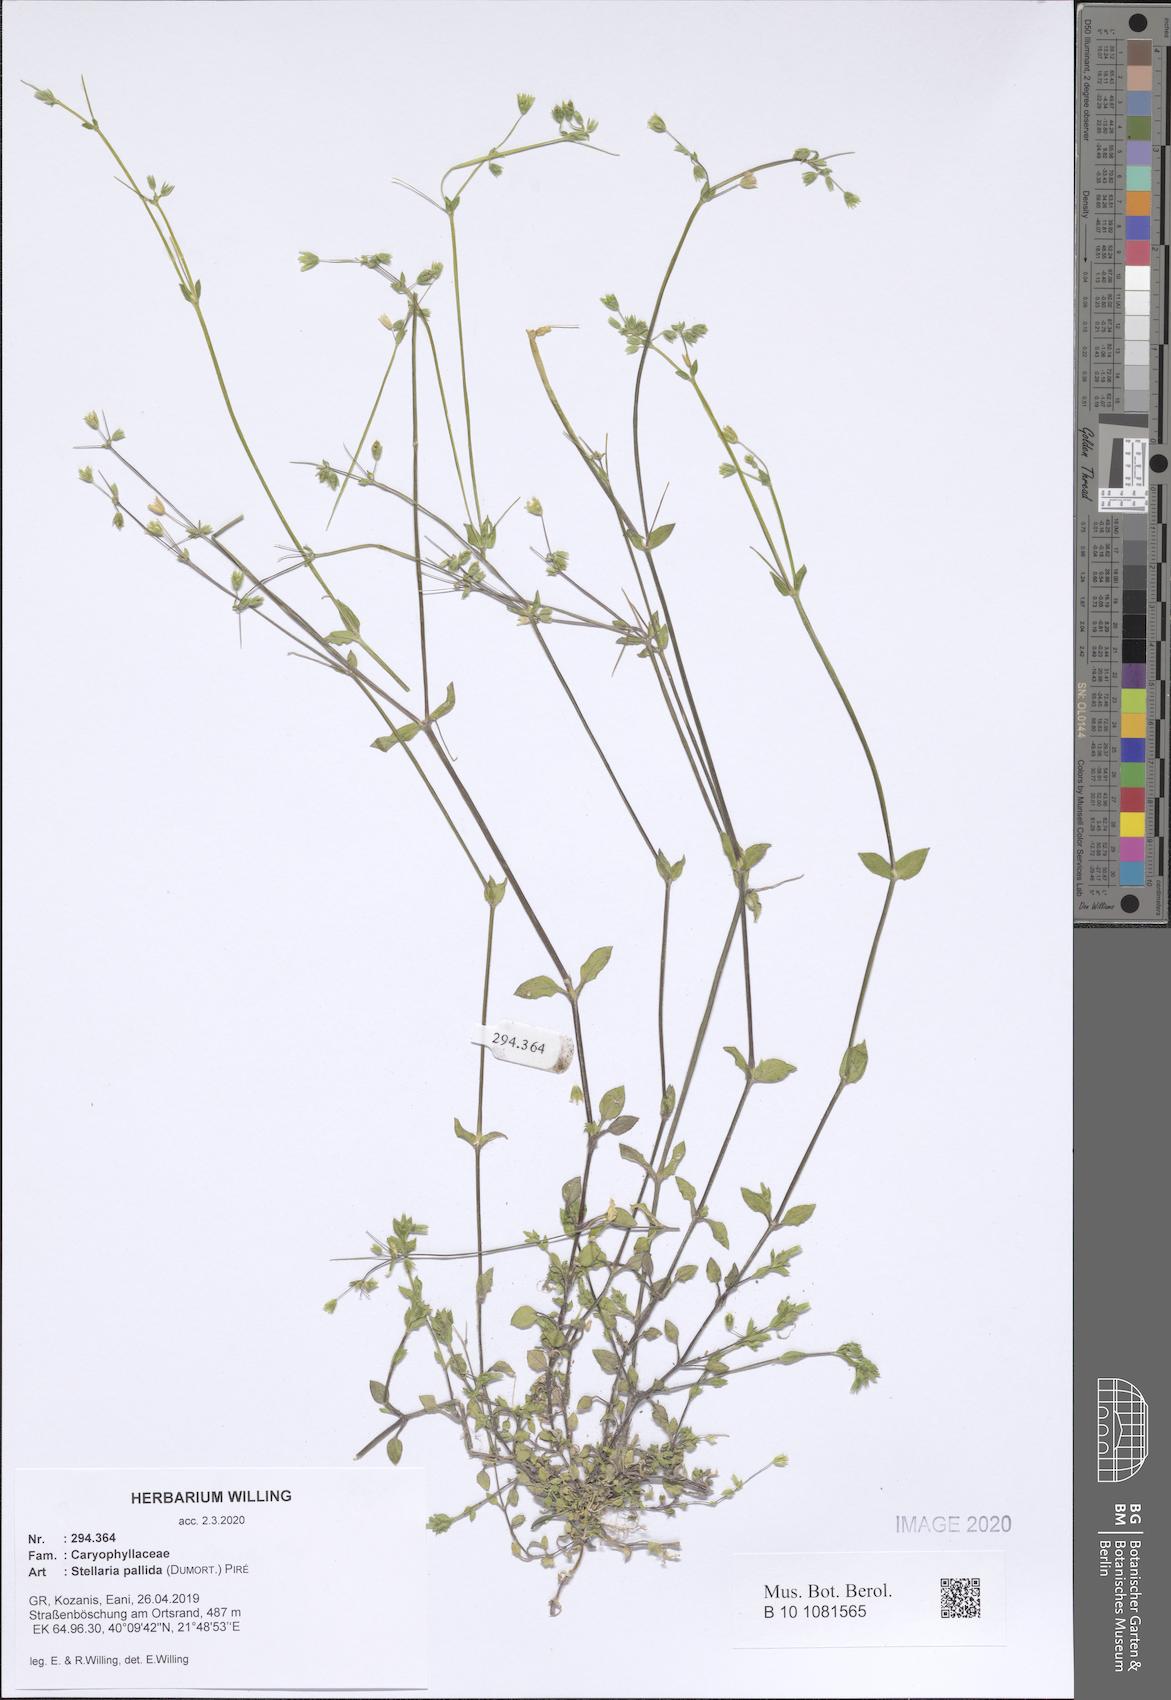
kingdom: Plantae
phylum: Tracheophyta
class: Magnoliopsida
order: Caryophyllales
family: Caryophyllaceae
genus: Stellaria
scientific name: Stellaria apetala
